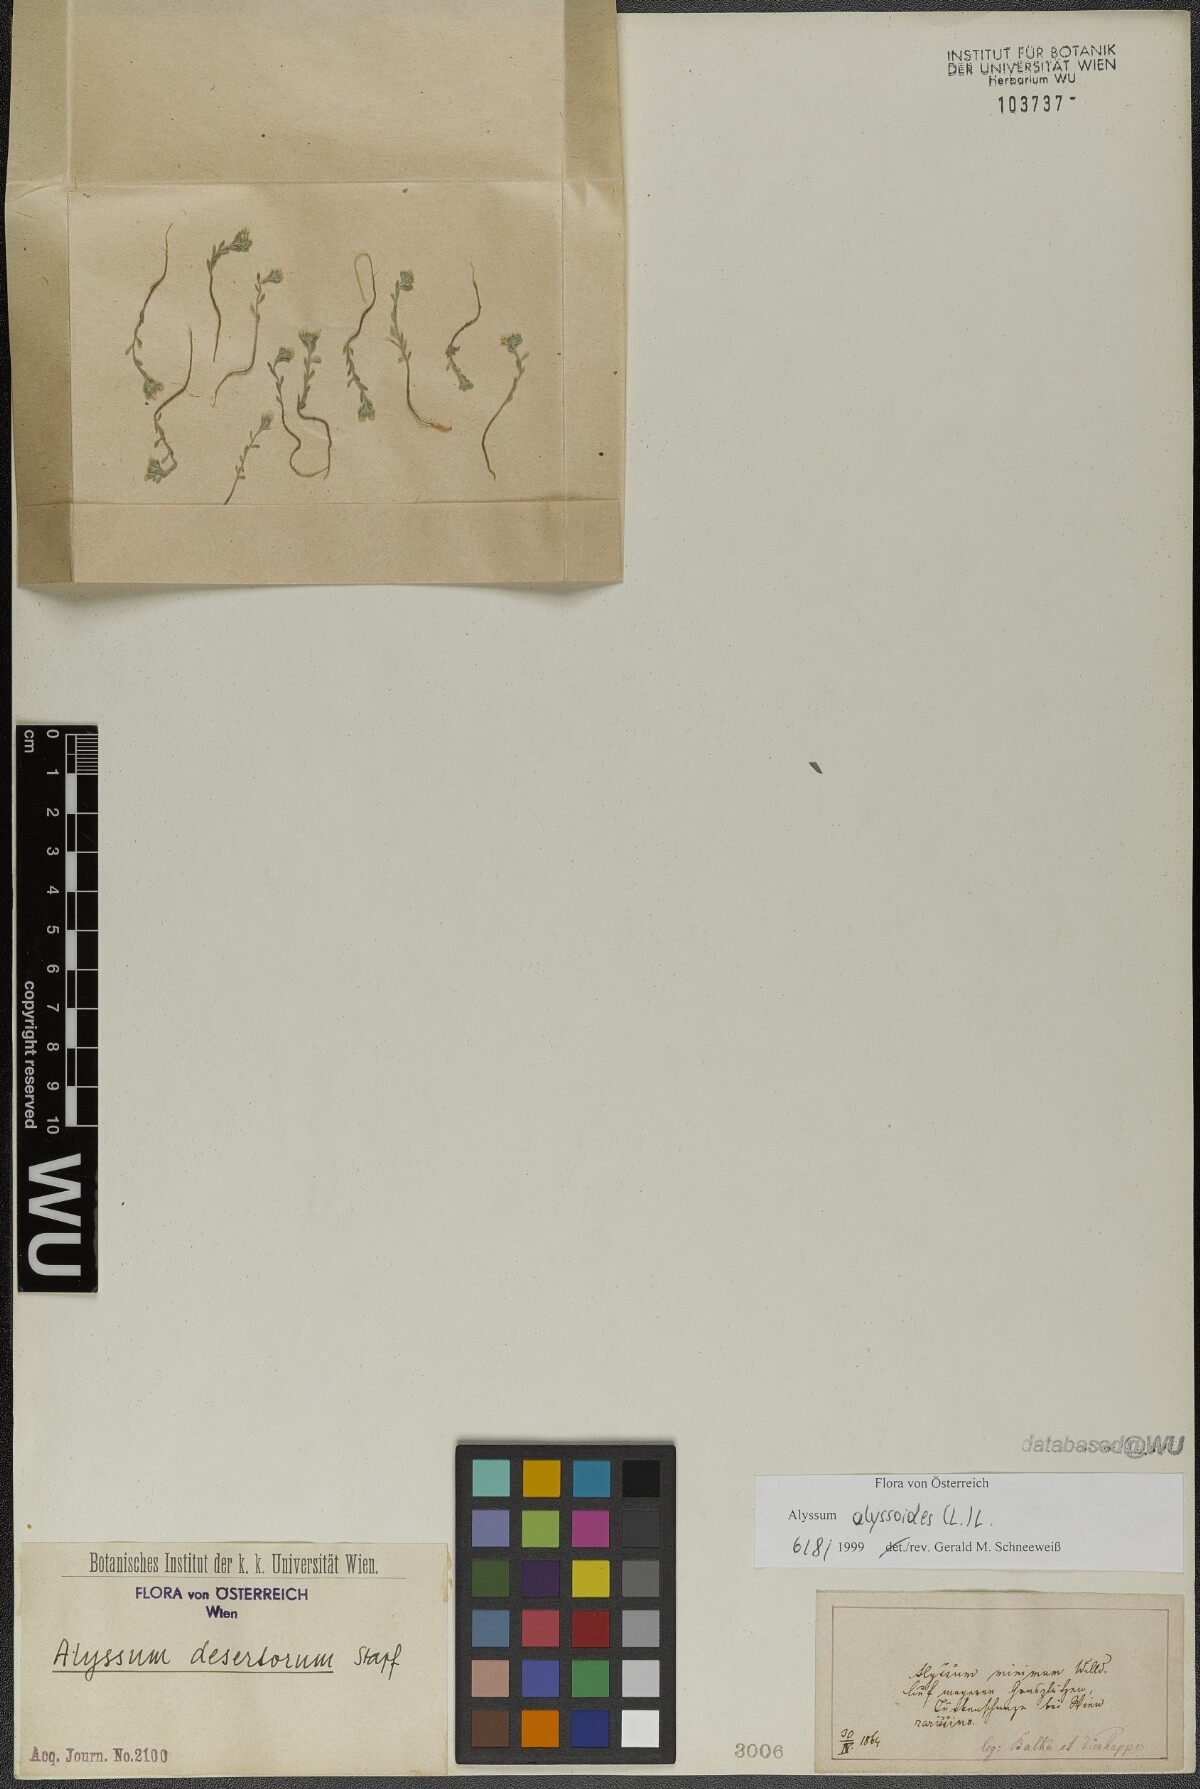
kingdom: Plantae
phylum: Tracheophyta
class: Magnoliopsida
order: Brassicales
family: Brassicaceae
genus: Alyssum
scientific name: Alyssum alyssoides
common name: Small alison
